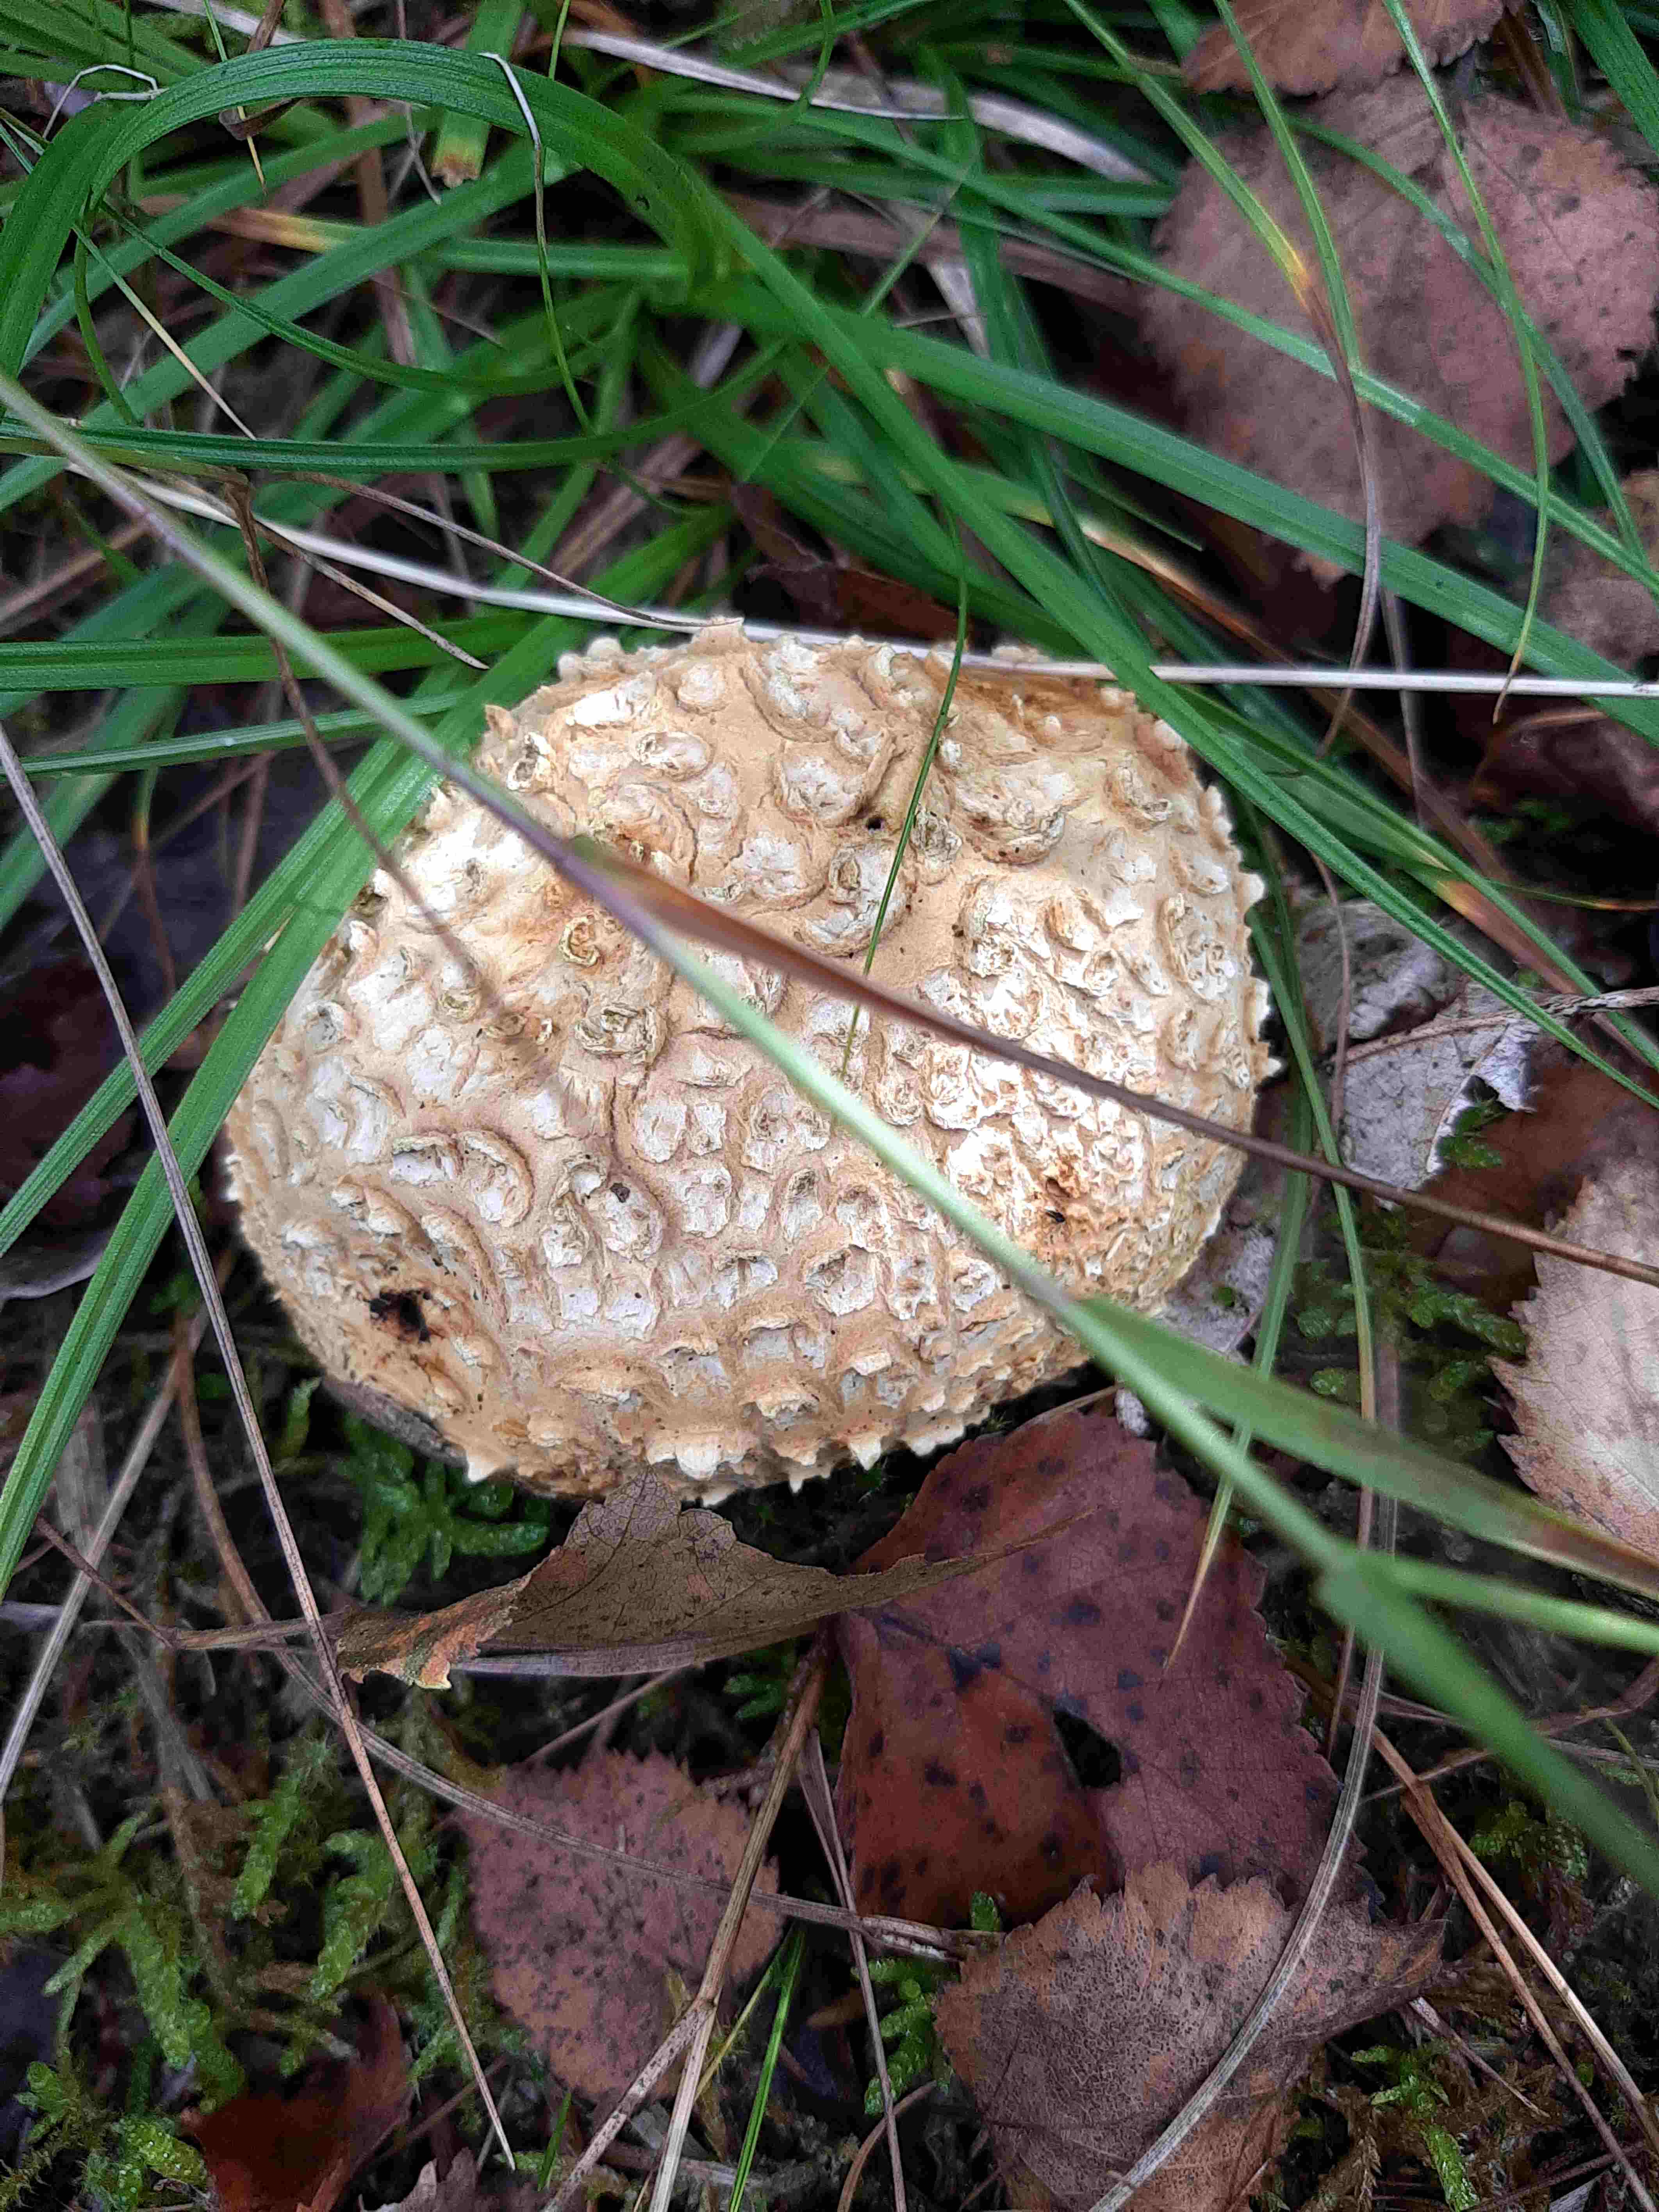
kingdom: Fungi
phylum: Basidiomycota
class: Agaricomycetes
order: Boletales
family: Sclerodermataceae
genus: Scleroderma
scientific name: Scleroderma
